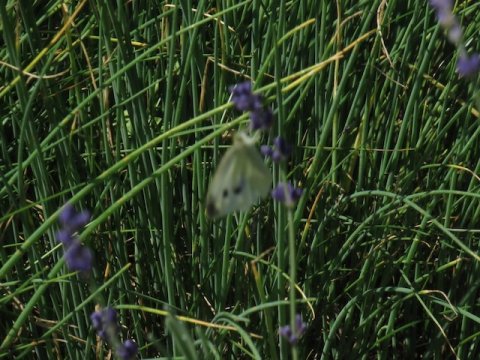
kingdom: Animalia
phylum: Arthropoda
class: Insecta
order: Lepidoptera
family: Pieridae
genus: Pieris
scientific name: Pieris rapae
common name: Cabbage White
